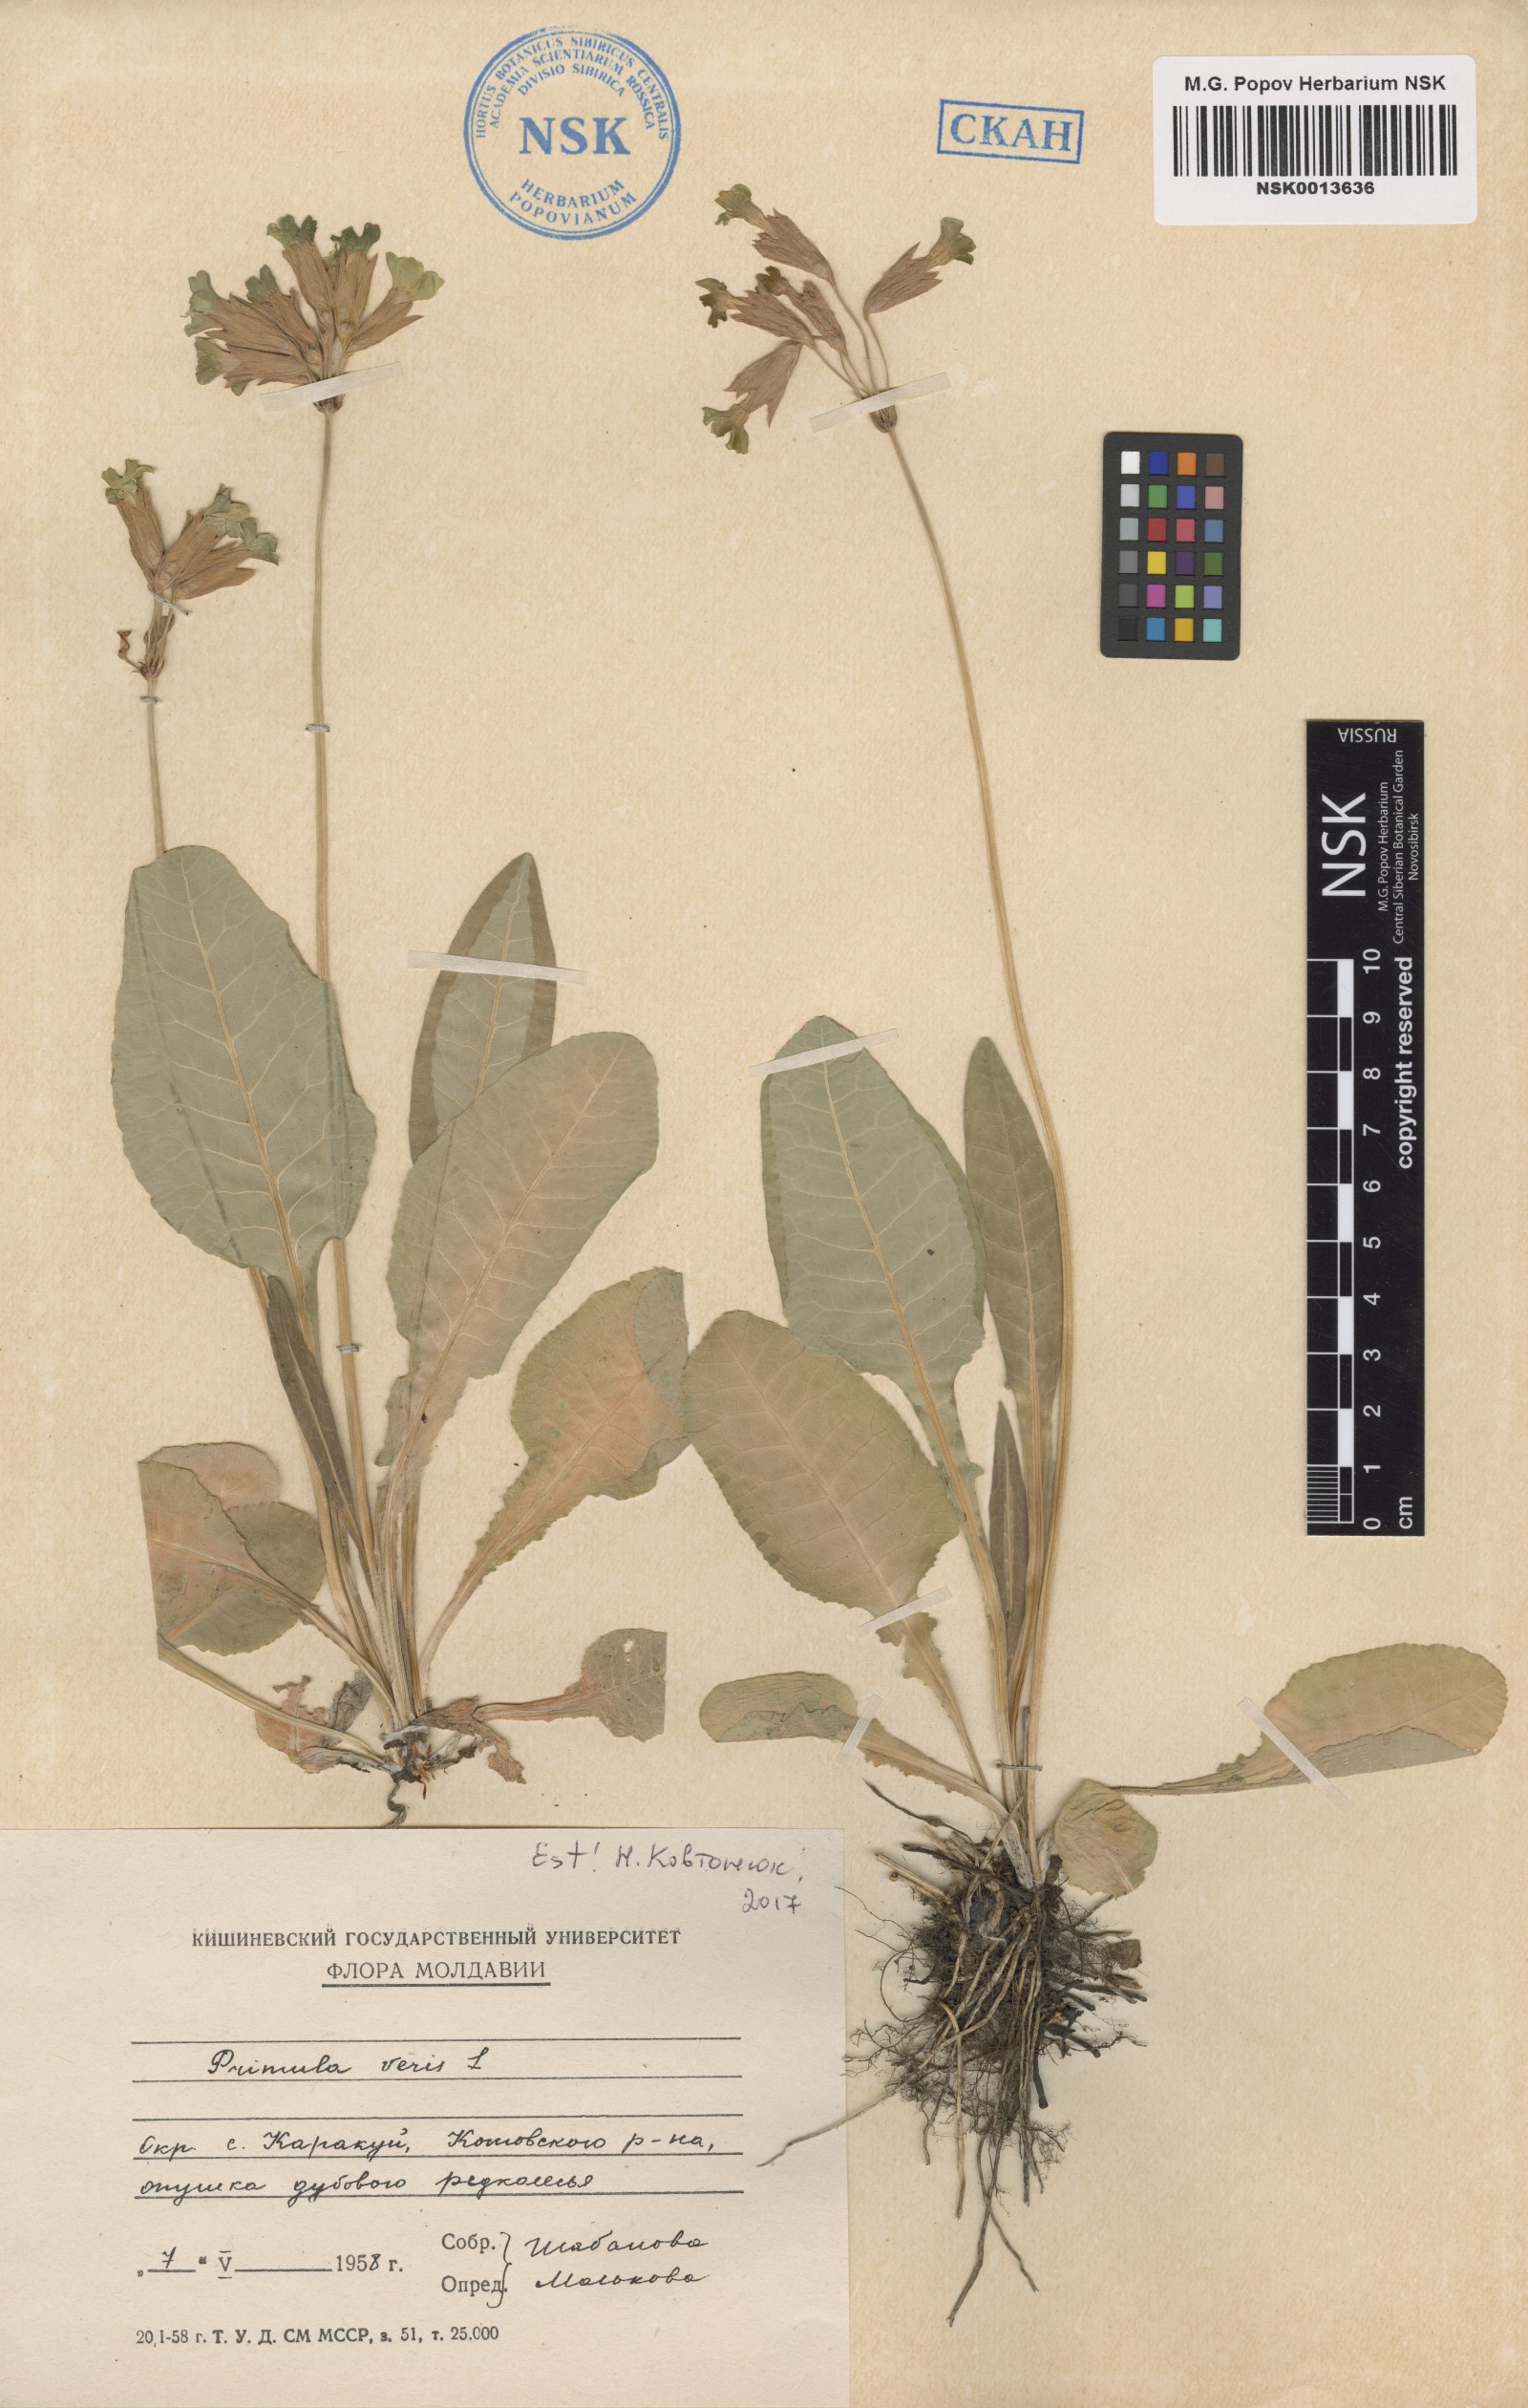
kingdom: Plantae
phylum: Tracheophyta
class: Magnoliopsida
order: Ericales
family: Primulaceae
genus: Primula
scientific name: Primula veris
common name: Cowslip
